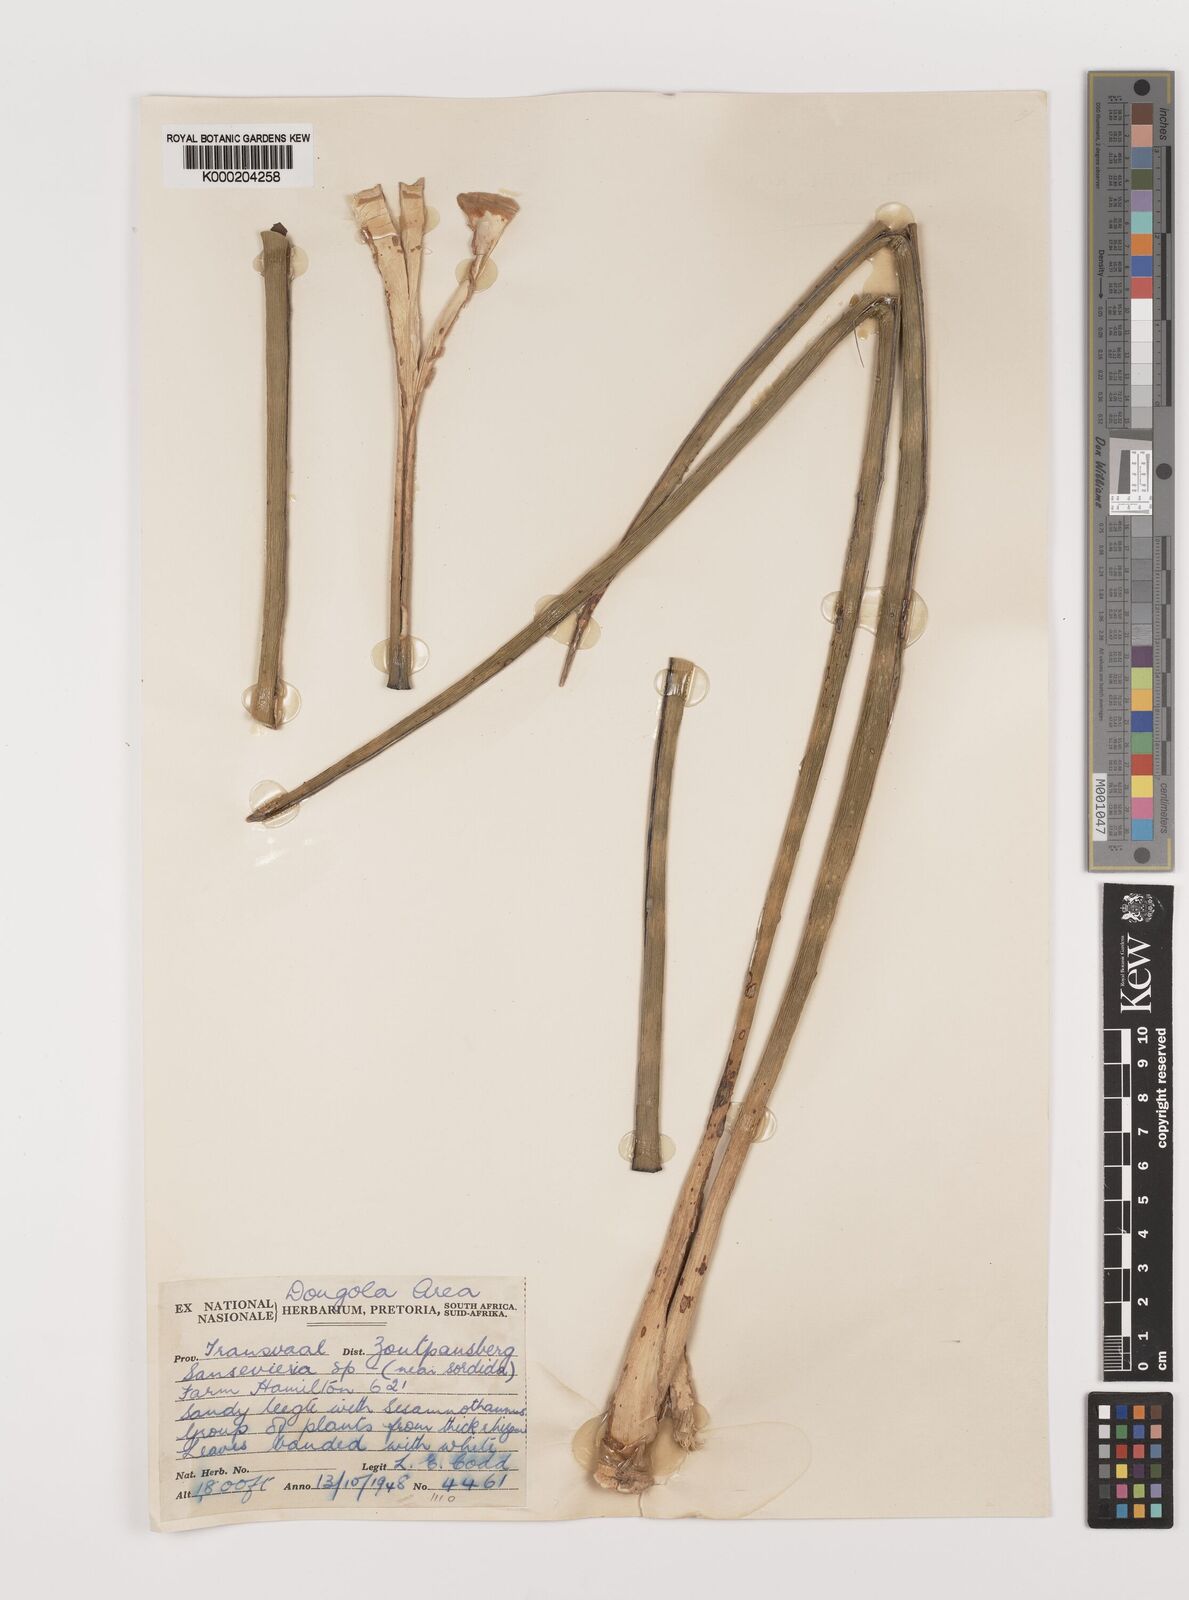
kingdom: Plantae
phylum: Tracheophyta
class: Liliopsida
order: Asparagales
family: Asparagaceae
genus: Dracaena
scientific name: Dracaena
